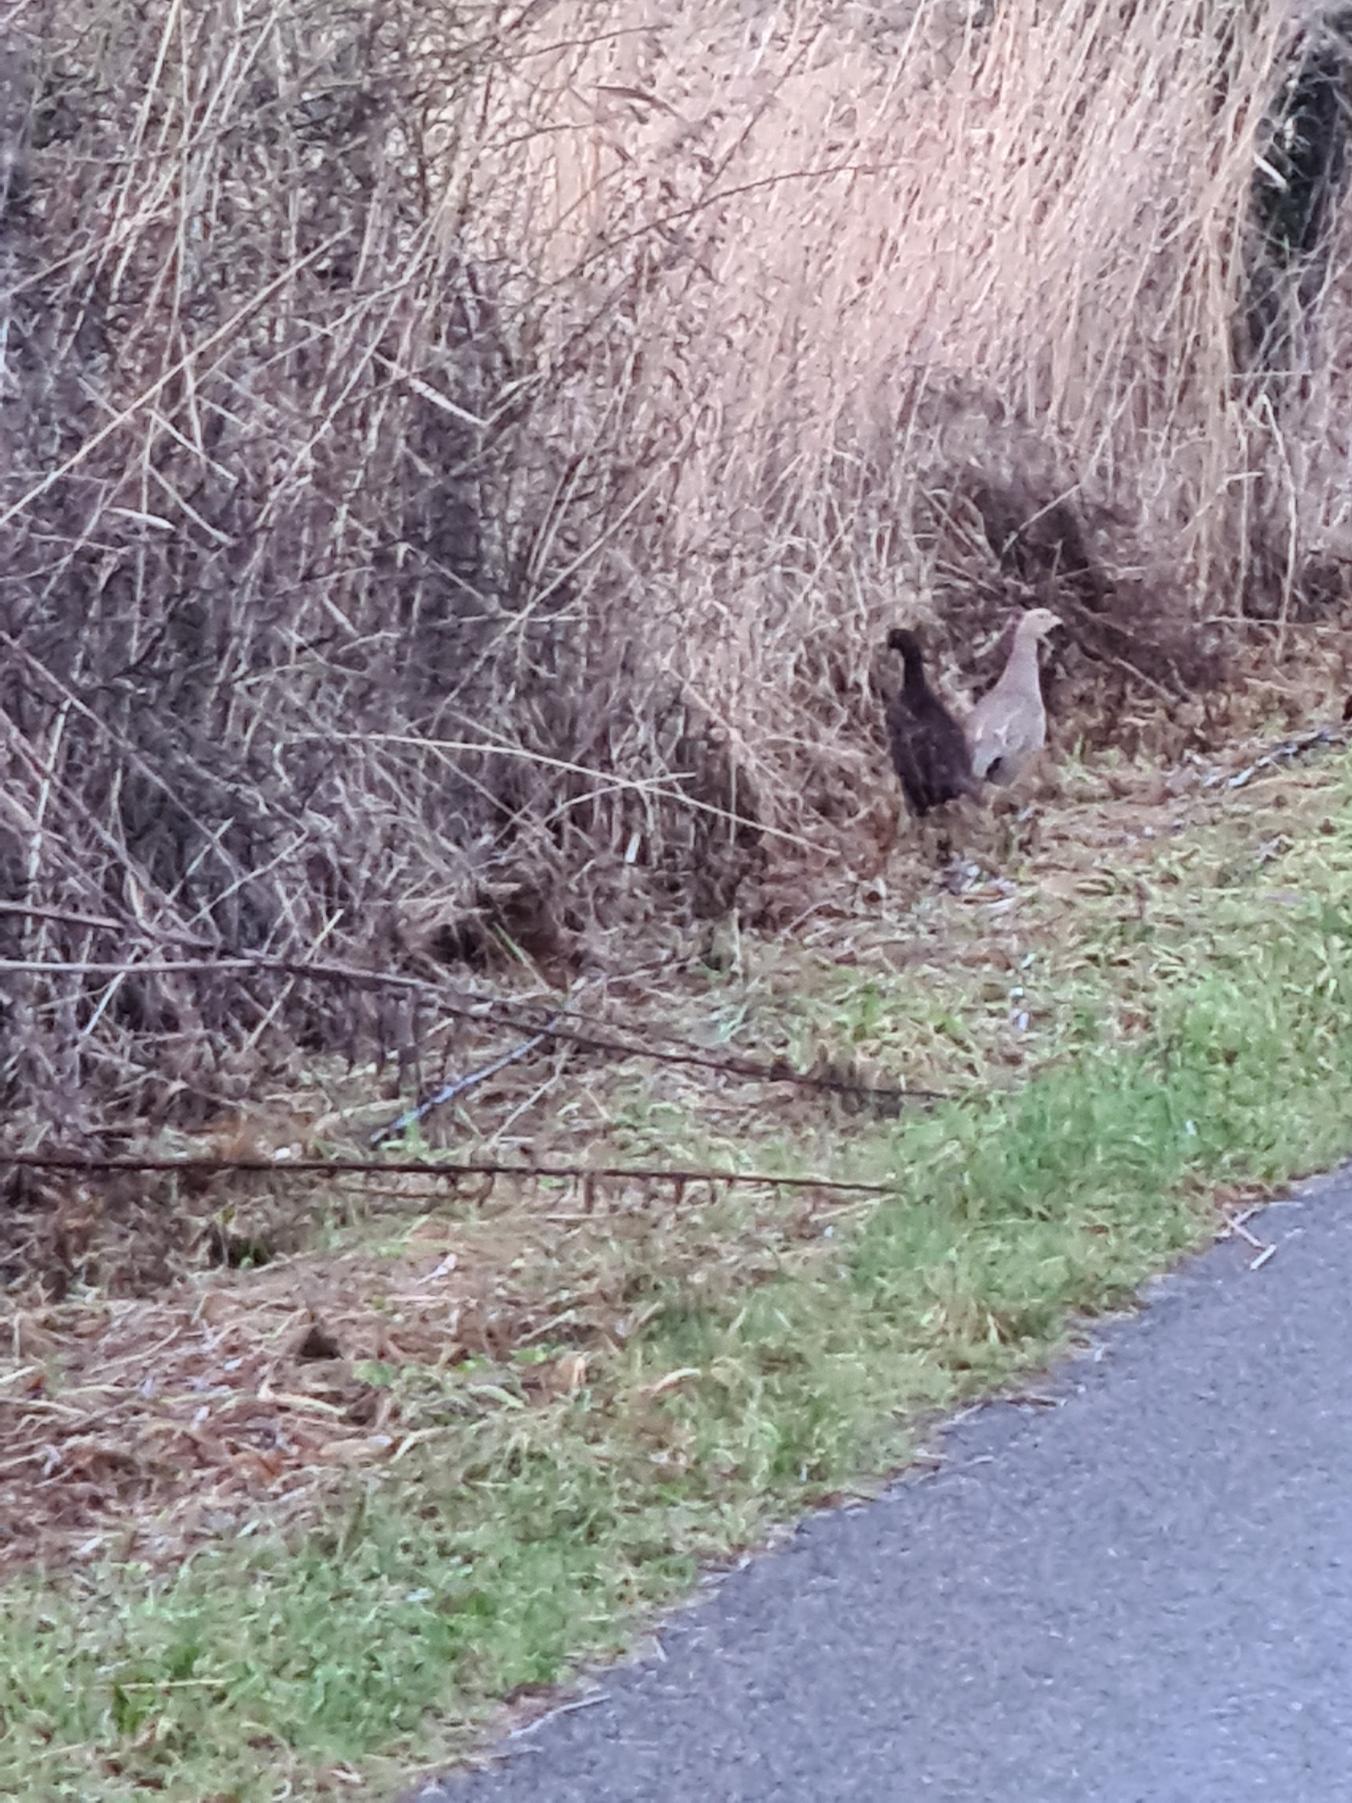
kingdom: Animalia
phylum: Chordata
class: Aves
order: Galliformes
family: Phasianidae
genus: Phasianus
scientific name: Phasianus colchicus
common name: Fasan
